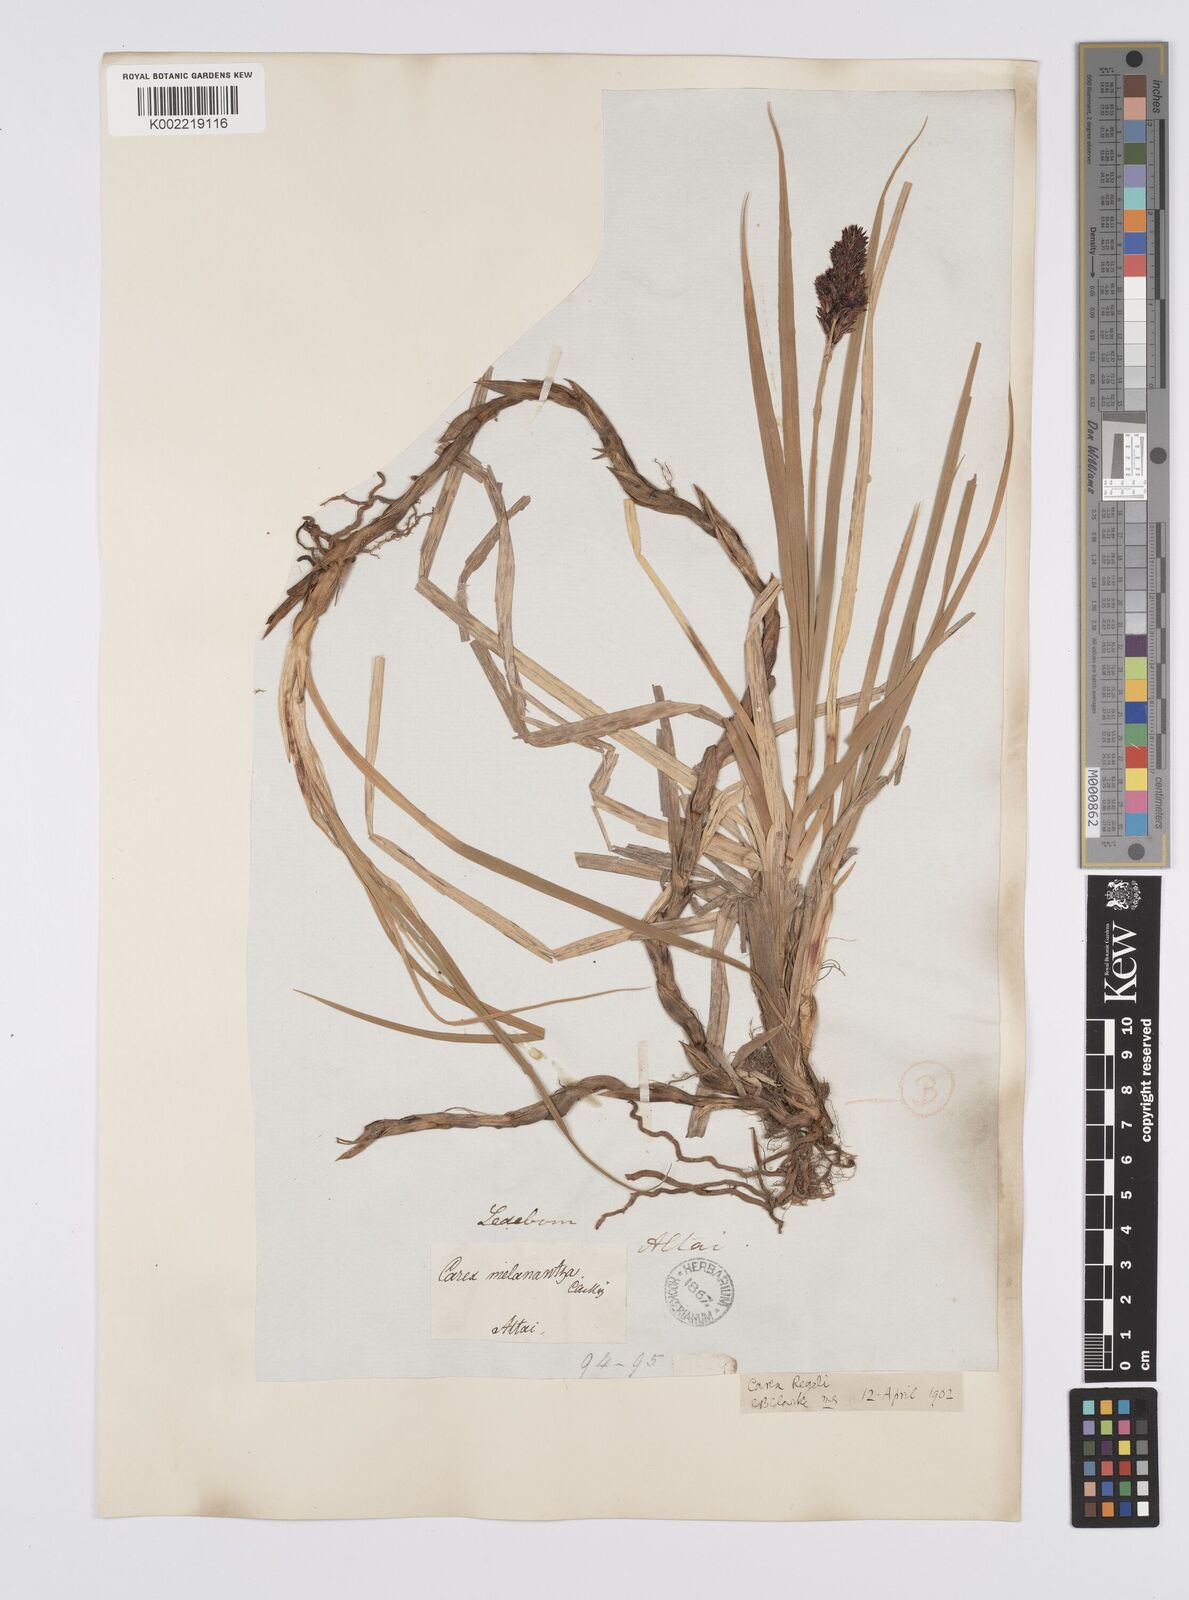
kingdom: Plantae
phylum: Tracheophyta
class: Liliopsida
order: Poales
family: Cyperaceae
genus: Carex
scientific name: Carex melanantha
